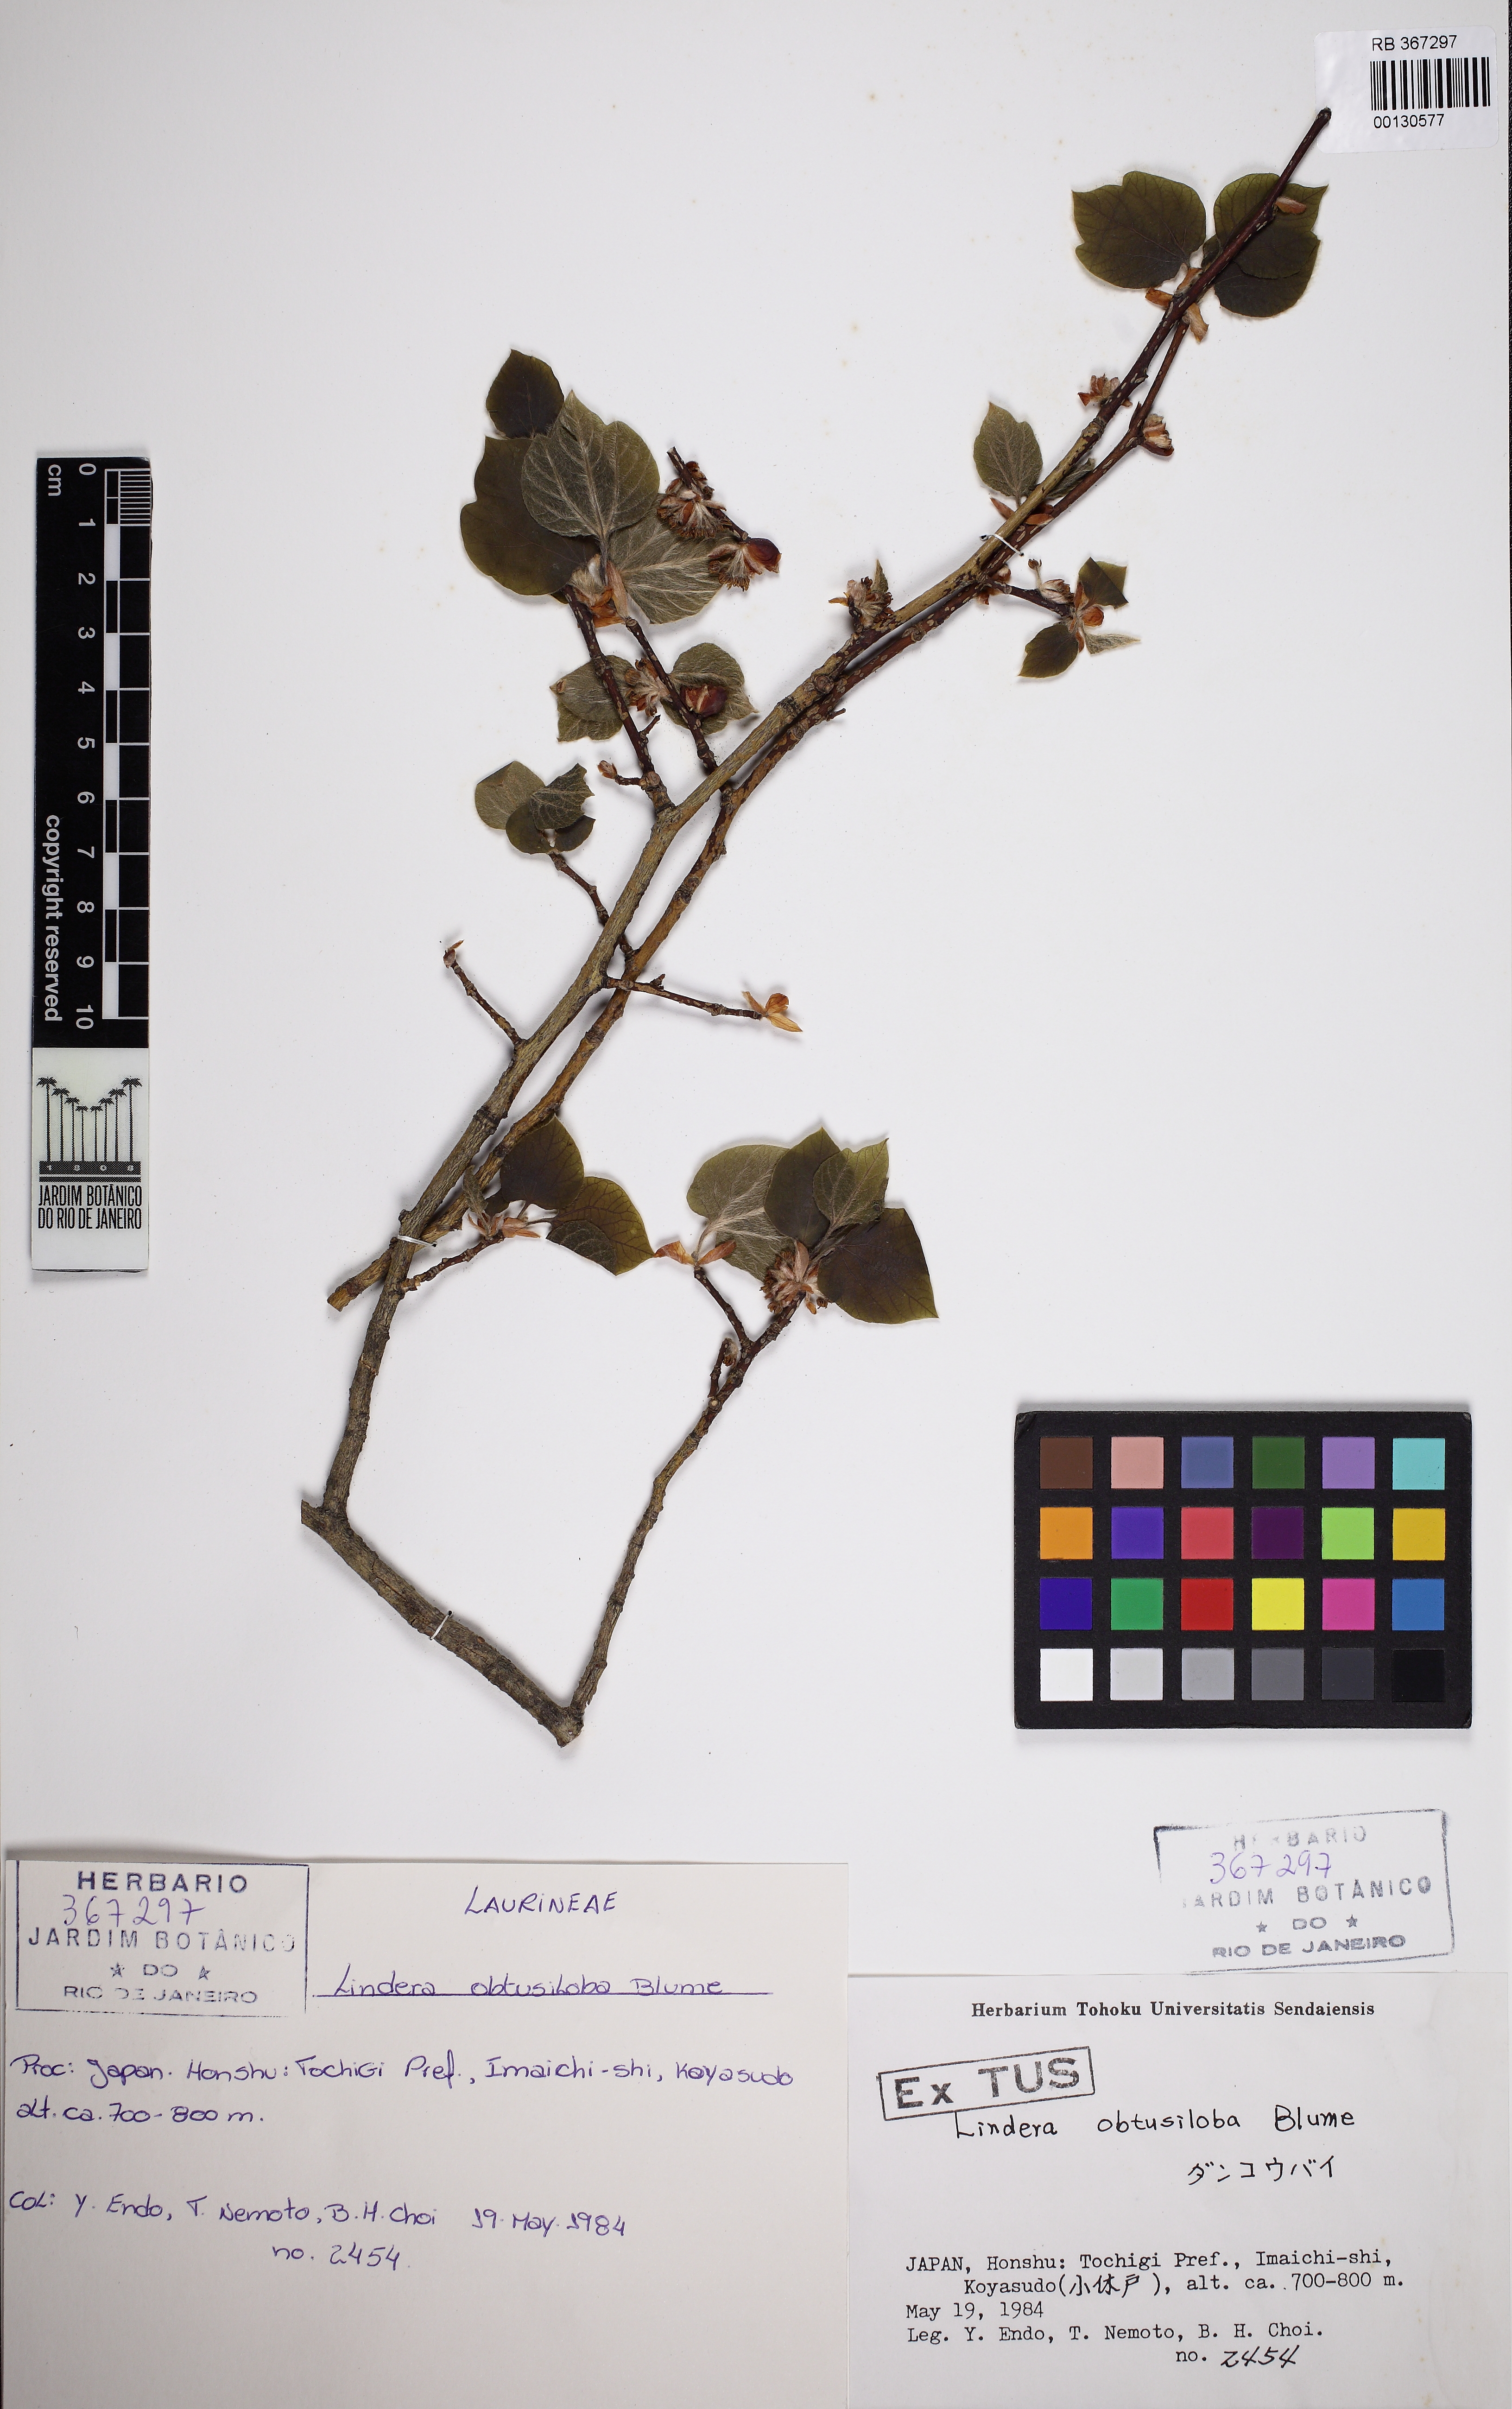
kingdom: Plantae
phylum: Tracheophyta
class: Magnoliopsida
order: Laurales
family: Lauraceae
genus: Lindera
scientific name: Lindera obtusiloba
